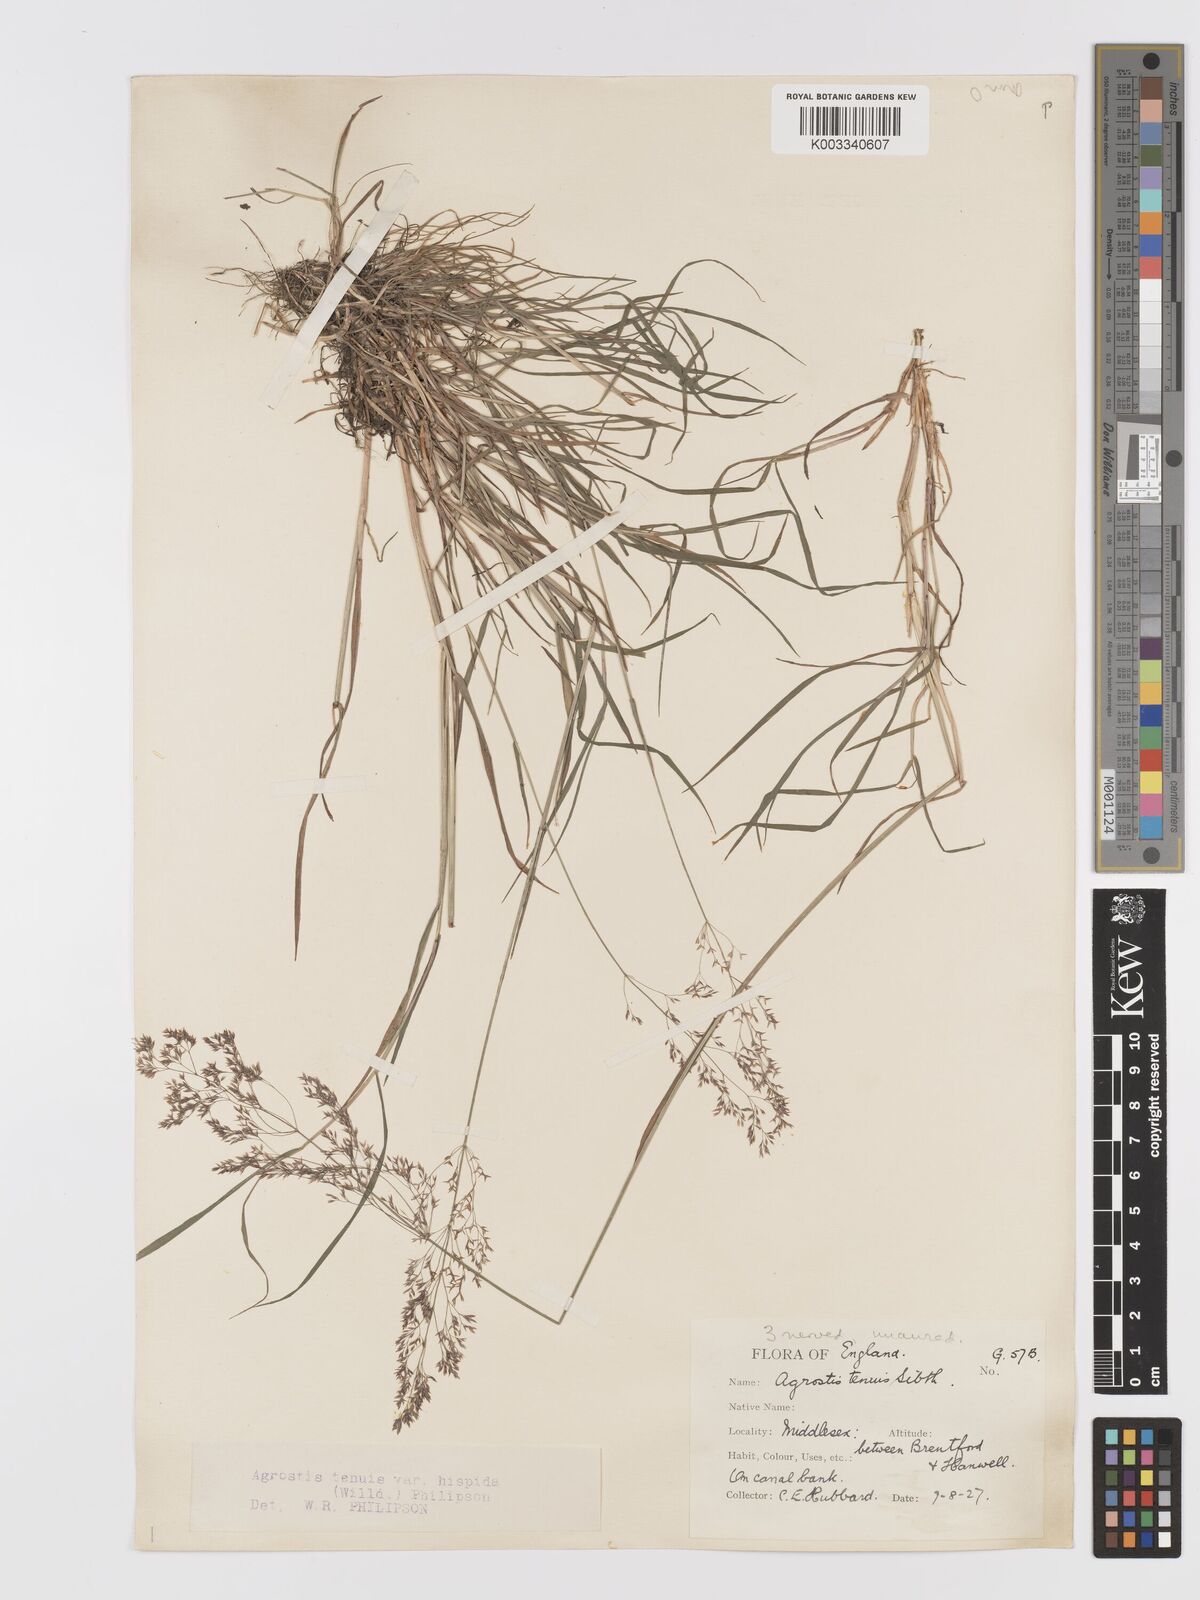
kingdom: Plantae
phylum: Tracheophyta
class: Liliopsida
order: Poales
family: Poaceae
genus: Agrostis
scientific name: Agrostis capillaris
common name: Colonial bentgrass
